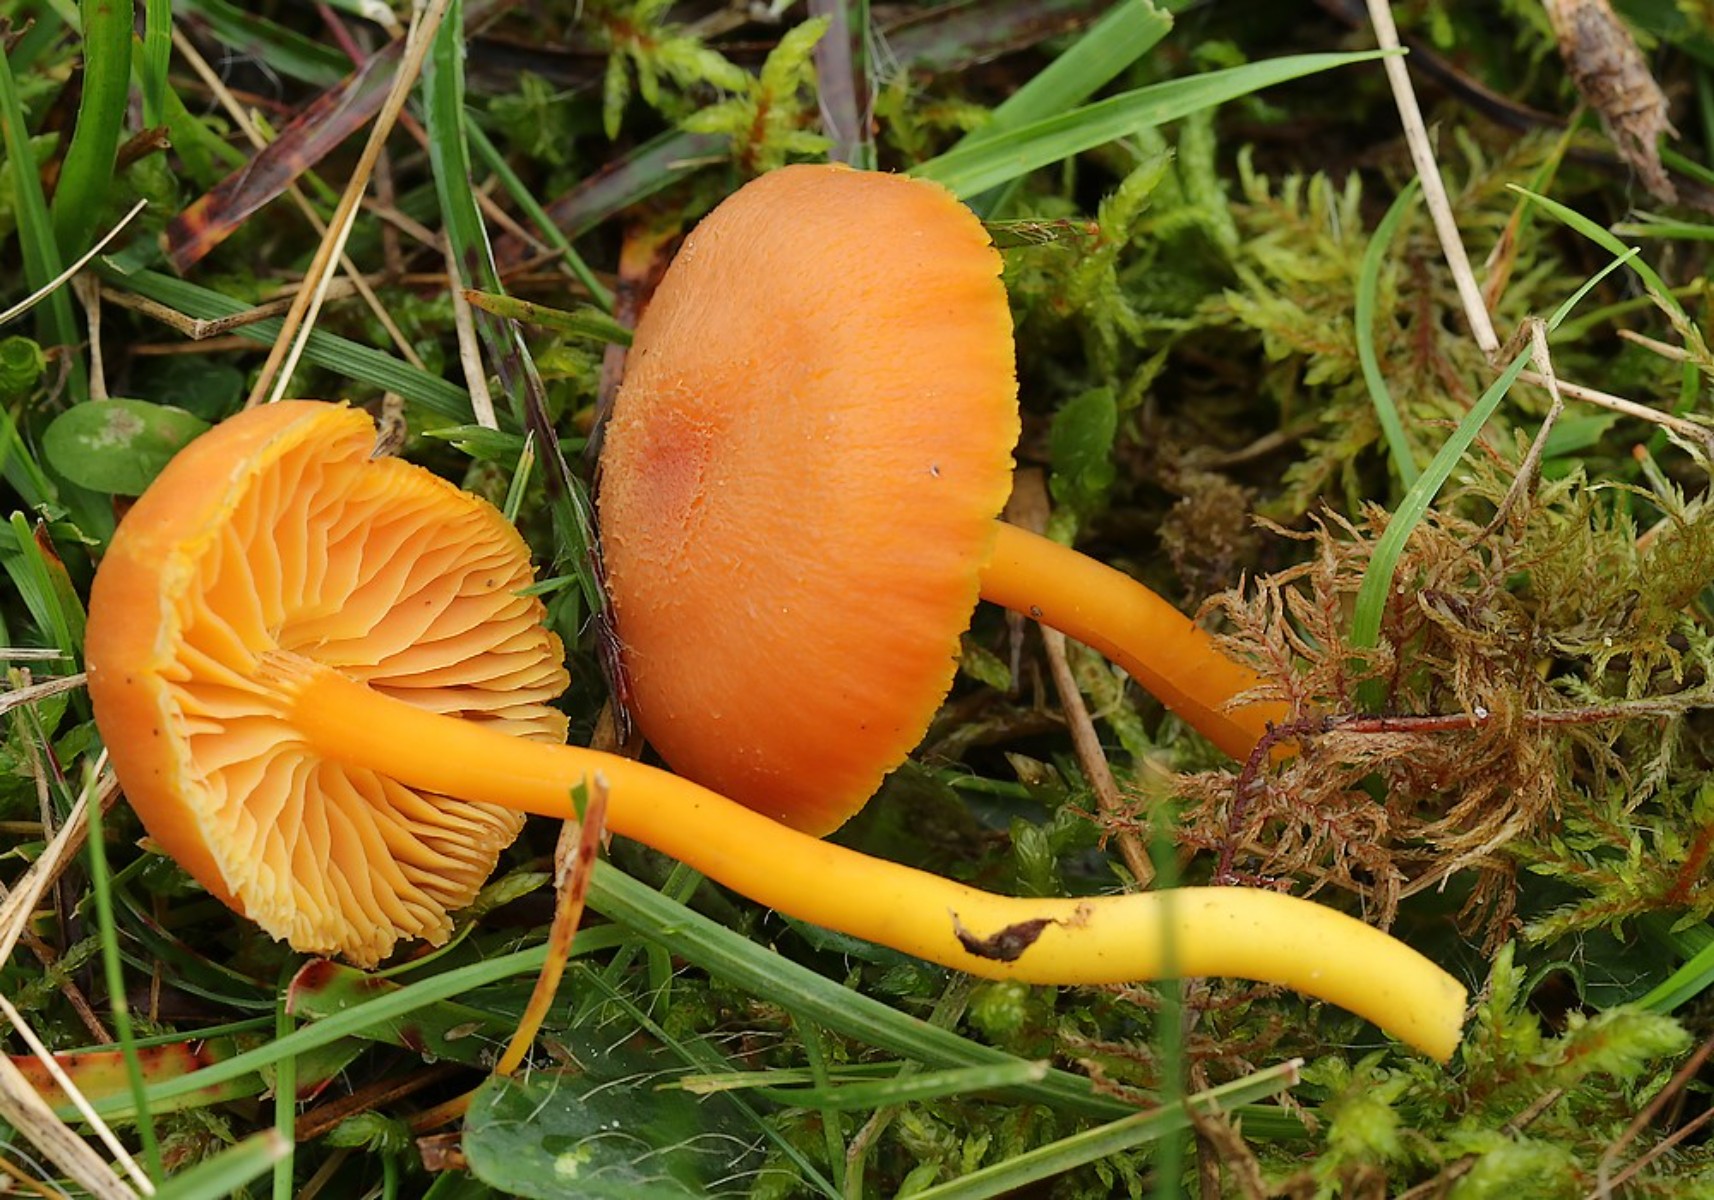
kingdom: Fungi
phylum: Basidiomycota
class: Agaricomycetes
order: Agaricales
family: Hygrophoraceae
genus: Hygrocybe
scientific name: Hygrocybe miniata
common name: mønje-vokshat
